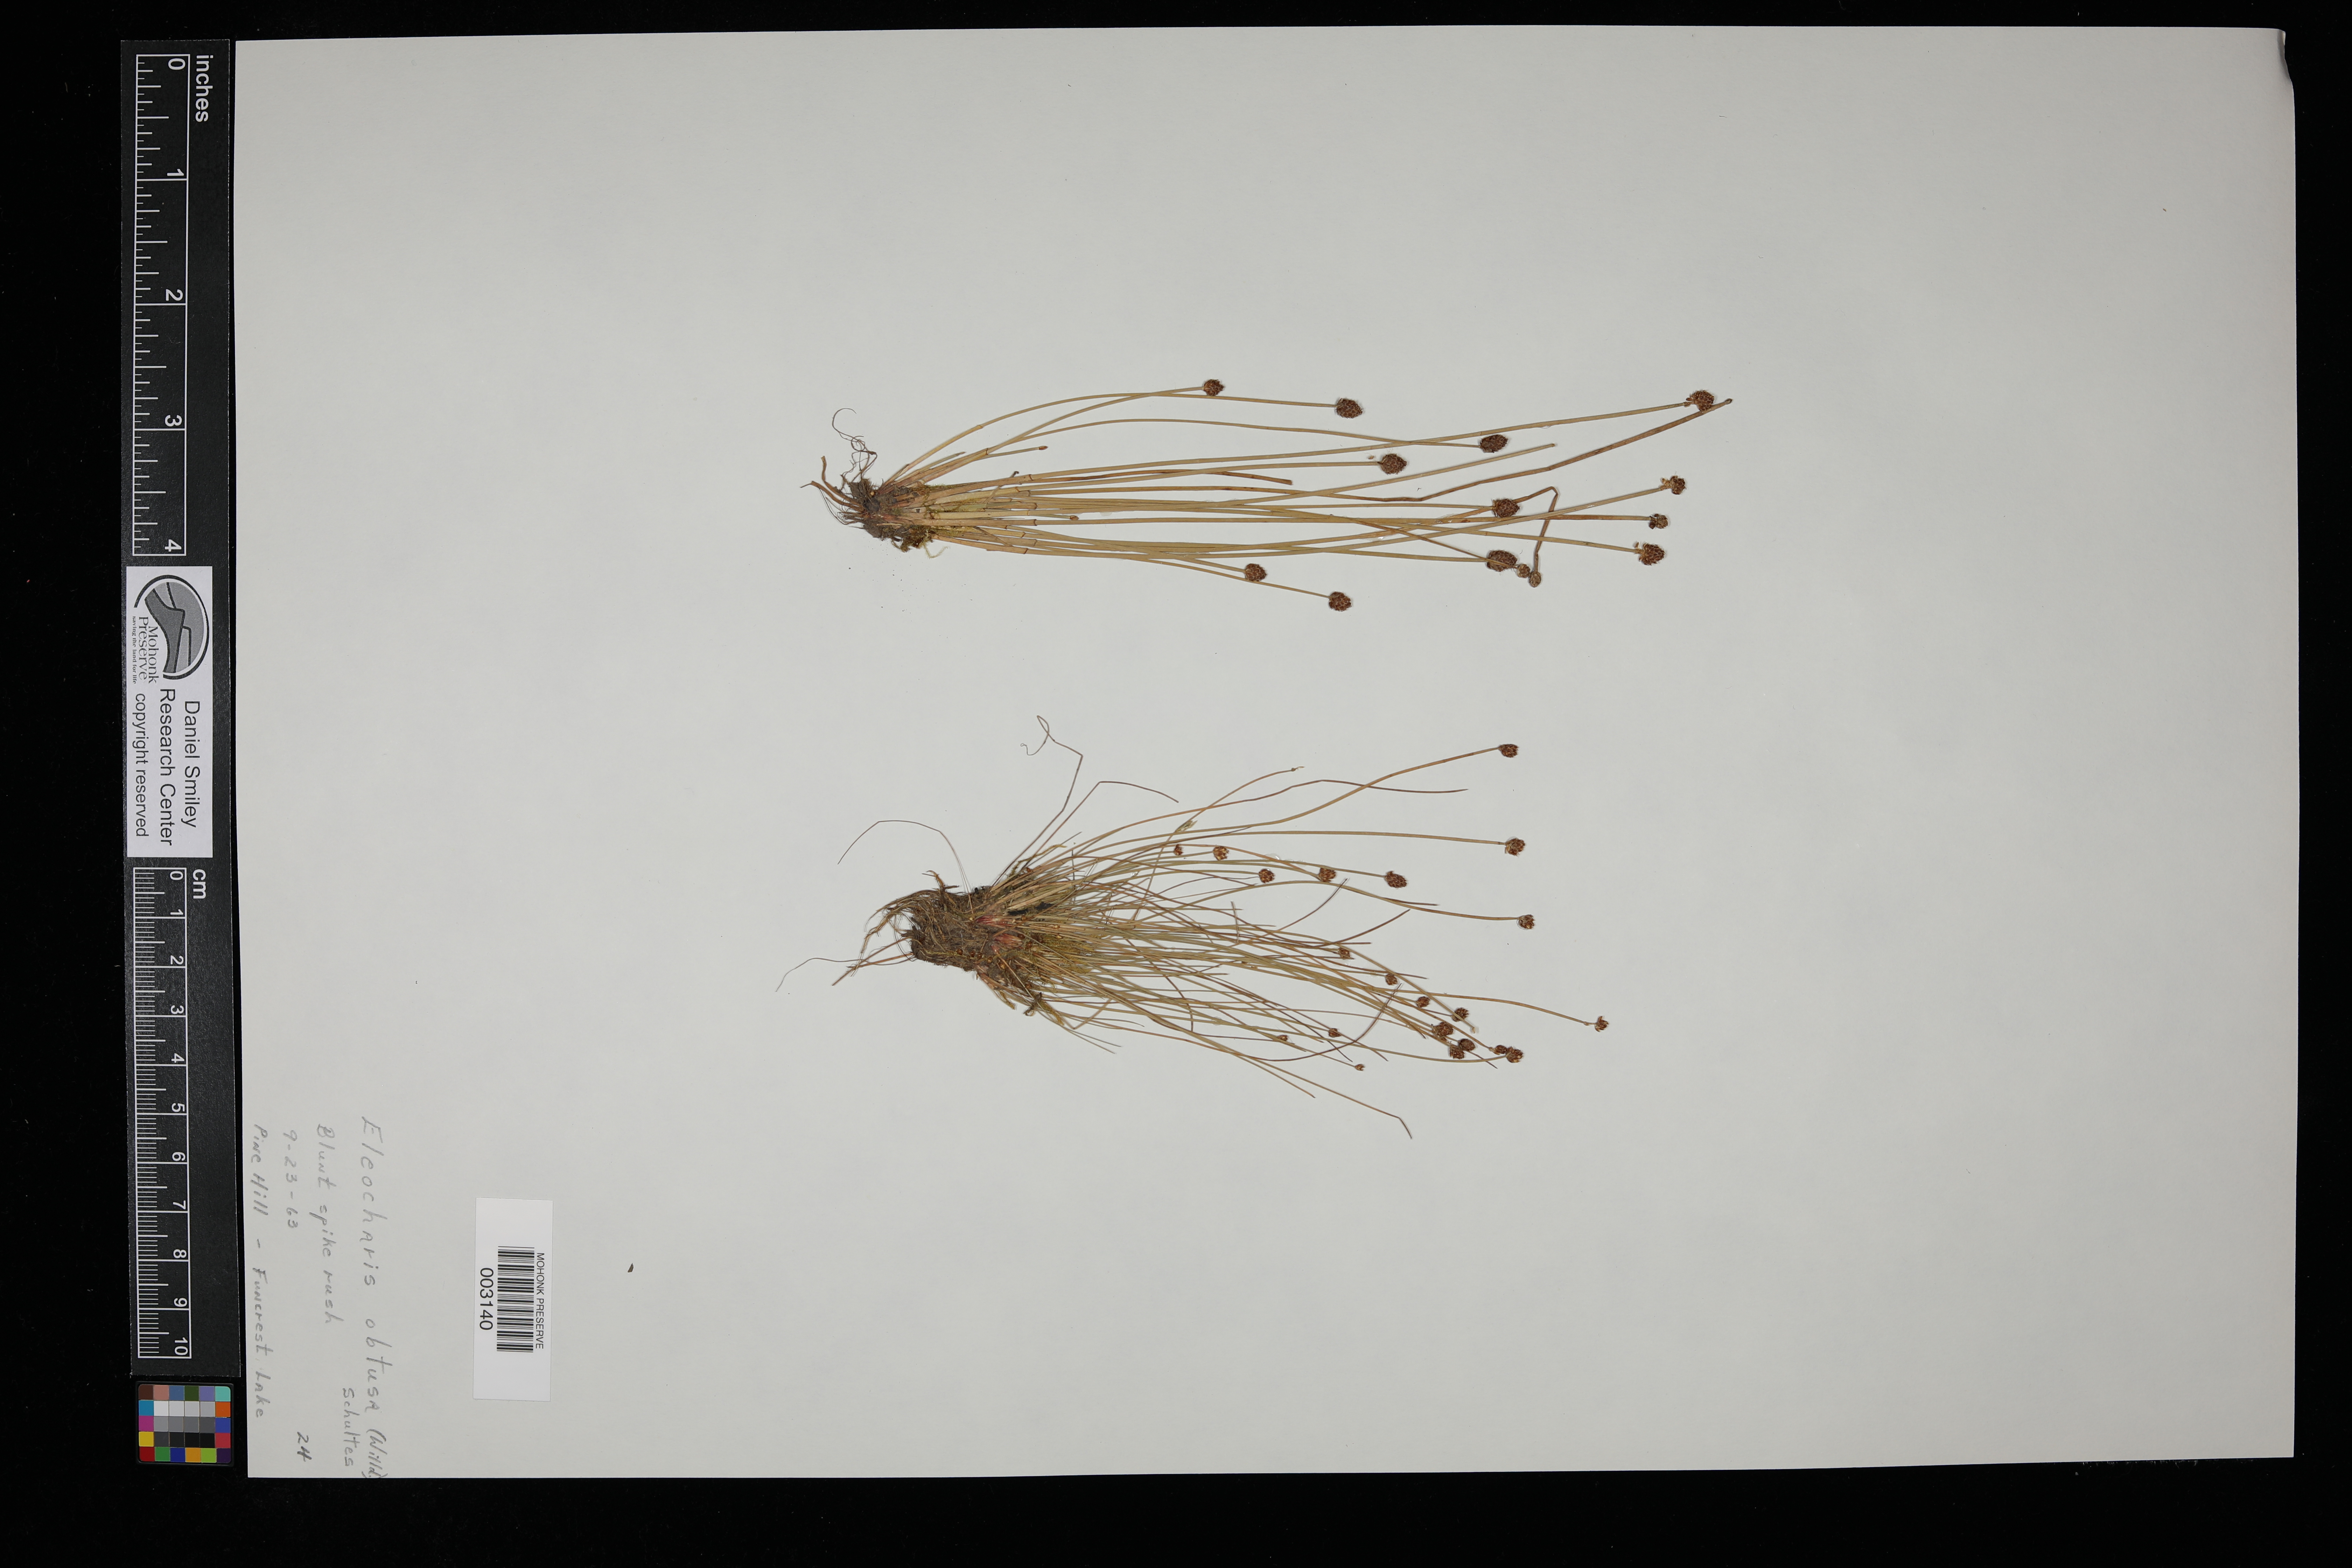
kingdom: Plantae
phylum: Tracheophyta
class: Liliopsida
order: Poales
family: Cyperaceae
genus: Eleocharis
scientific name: Eleocharis obtusa
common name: Blunt spikerush
